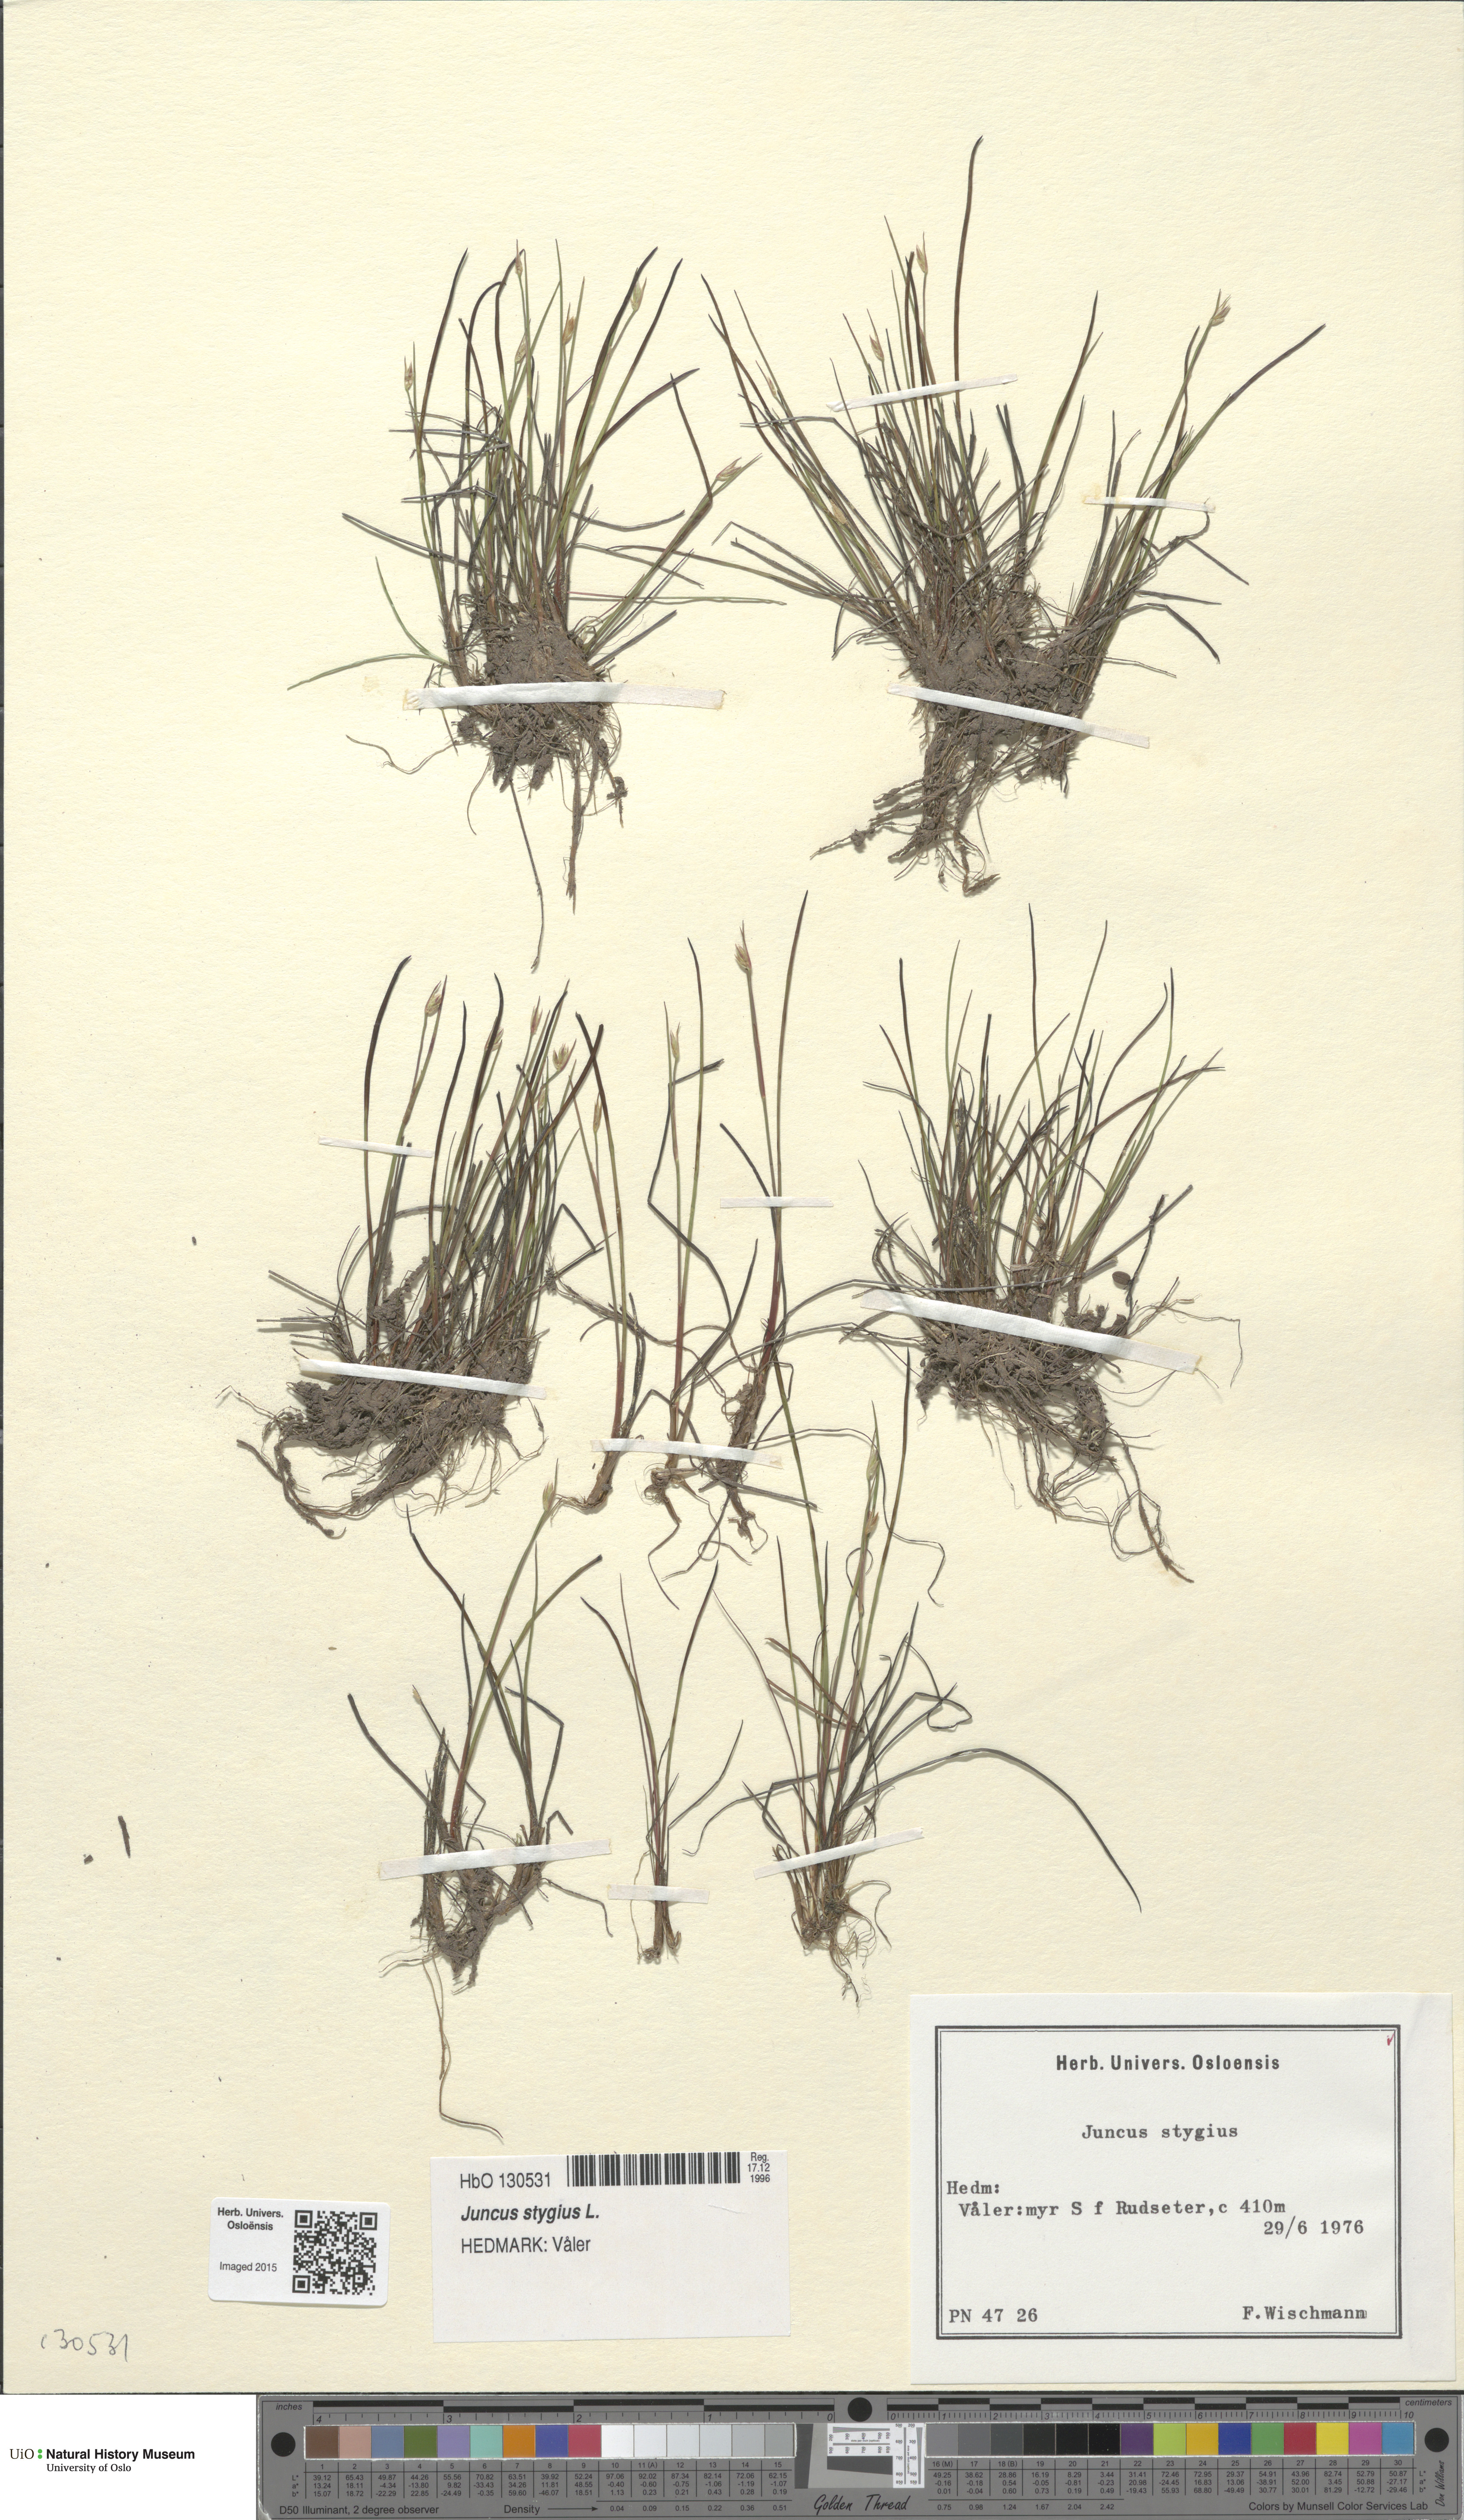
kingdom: Plantae
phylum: Tracheophyta
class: Liliopsida
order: Poales
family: Juncaceae
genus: Juncus
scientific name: Juncus stygius
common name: Bog rush
